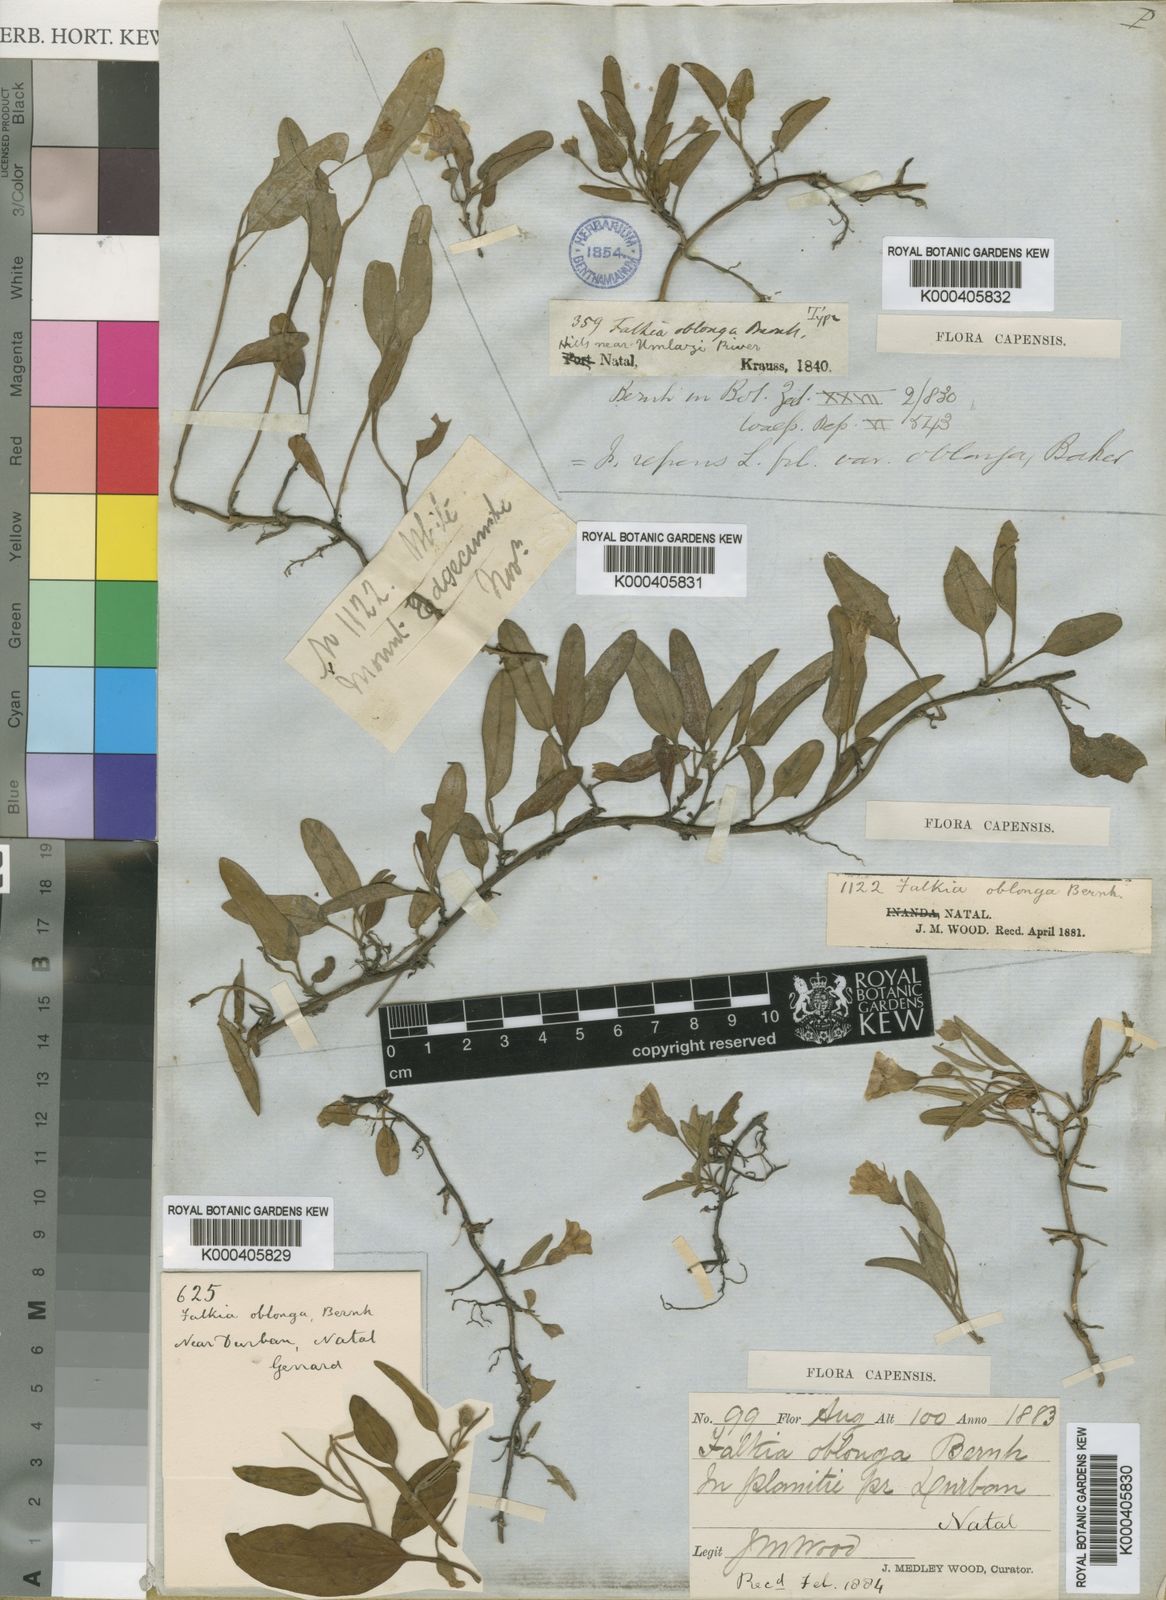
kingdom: Plantae
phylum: Tracheophyta
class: Magnoliopsida
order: Solanales
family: Convolvulaceae
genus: Falkia
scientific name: Falkia oblonga
